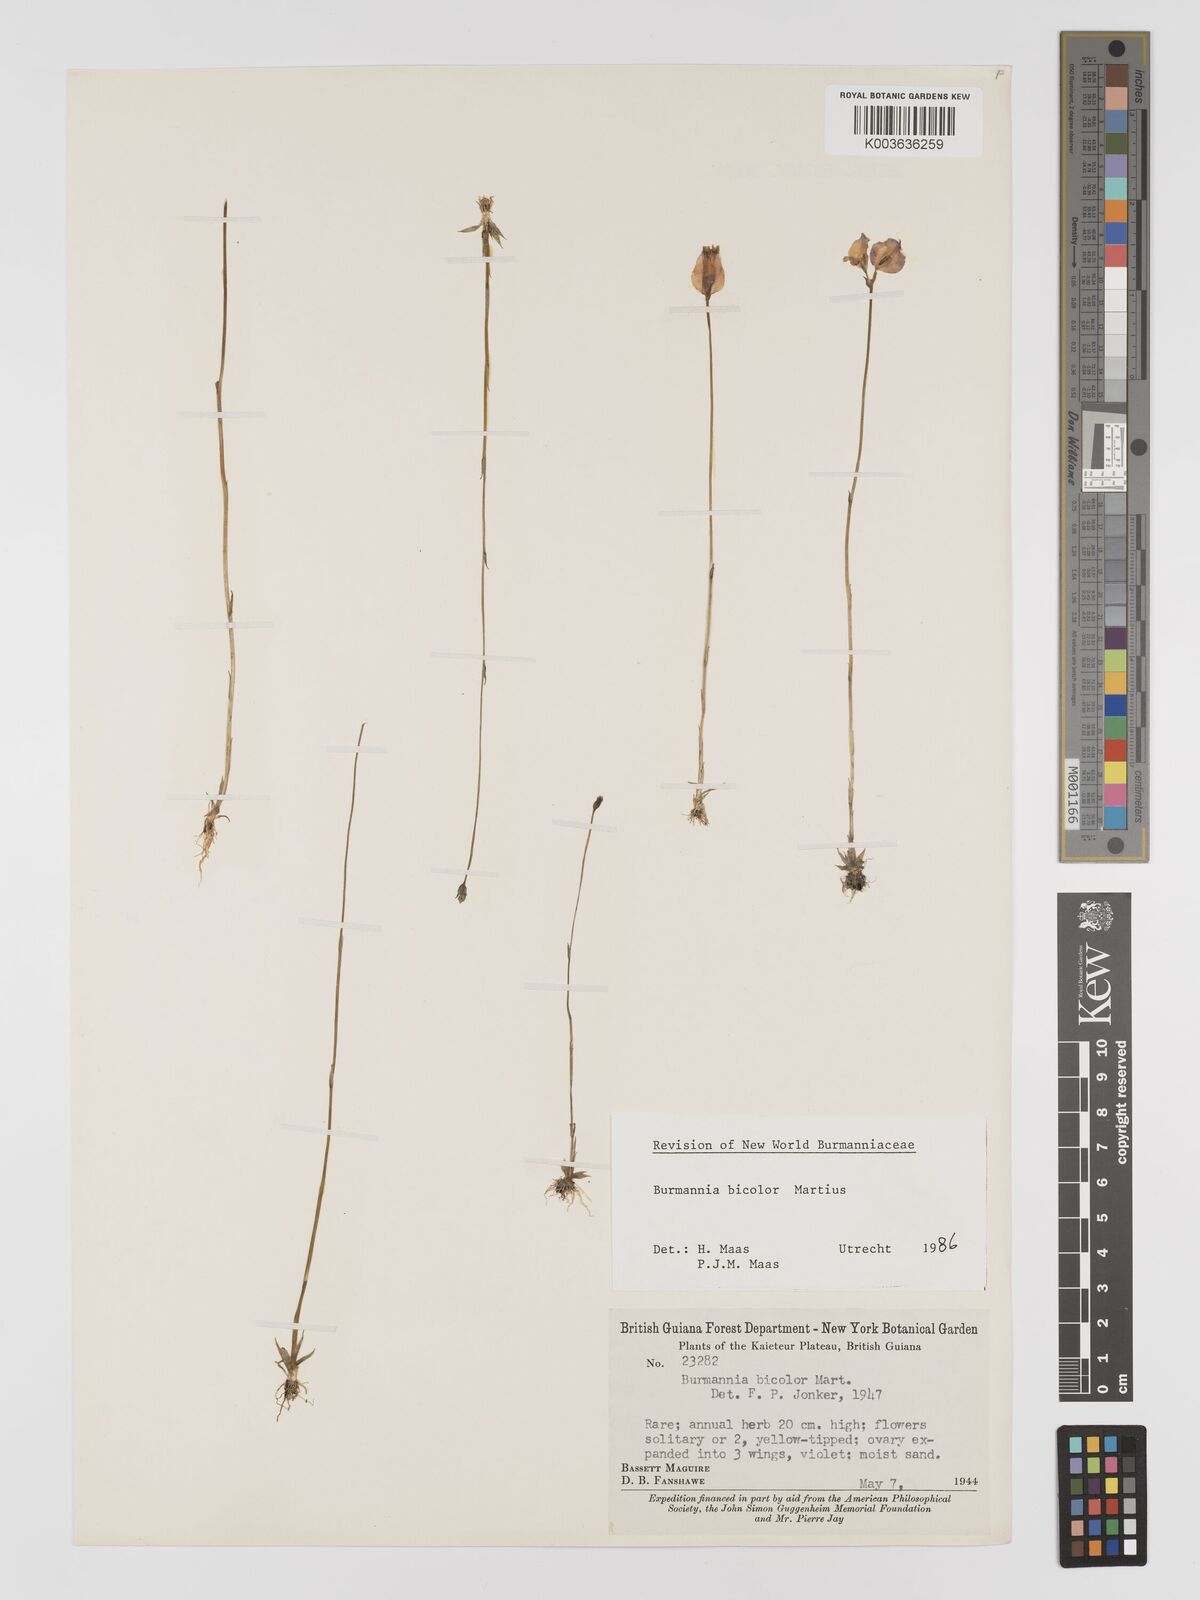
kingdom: Plantae
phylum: Tracheophyta
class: Liliopsida
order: Dioscoreales
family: Burmanniaceae
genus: Burmannia
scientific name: Burmannia bicolor
